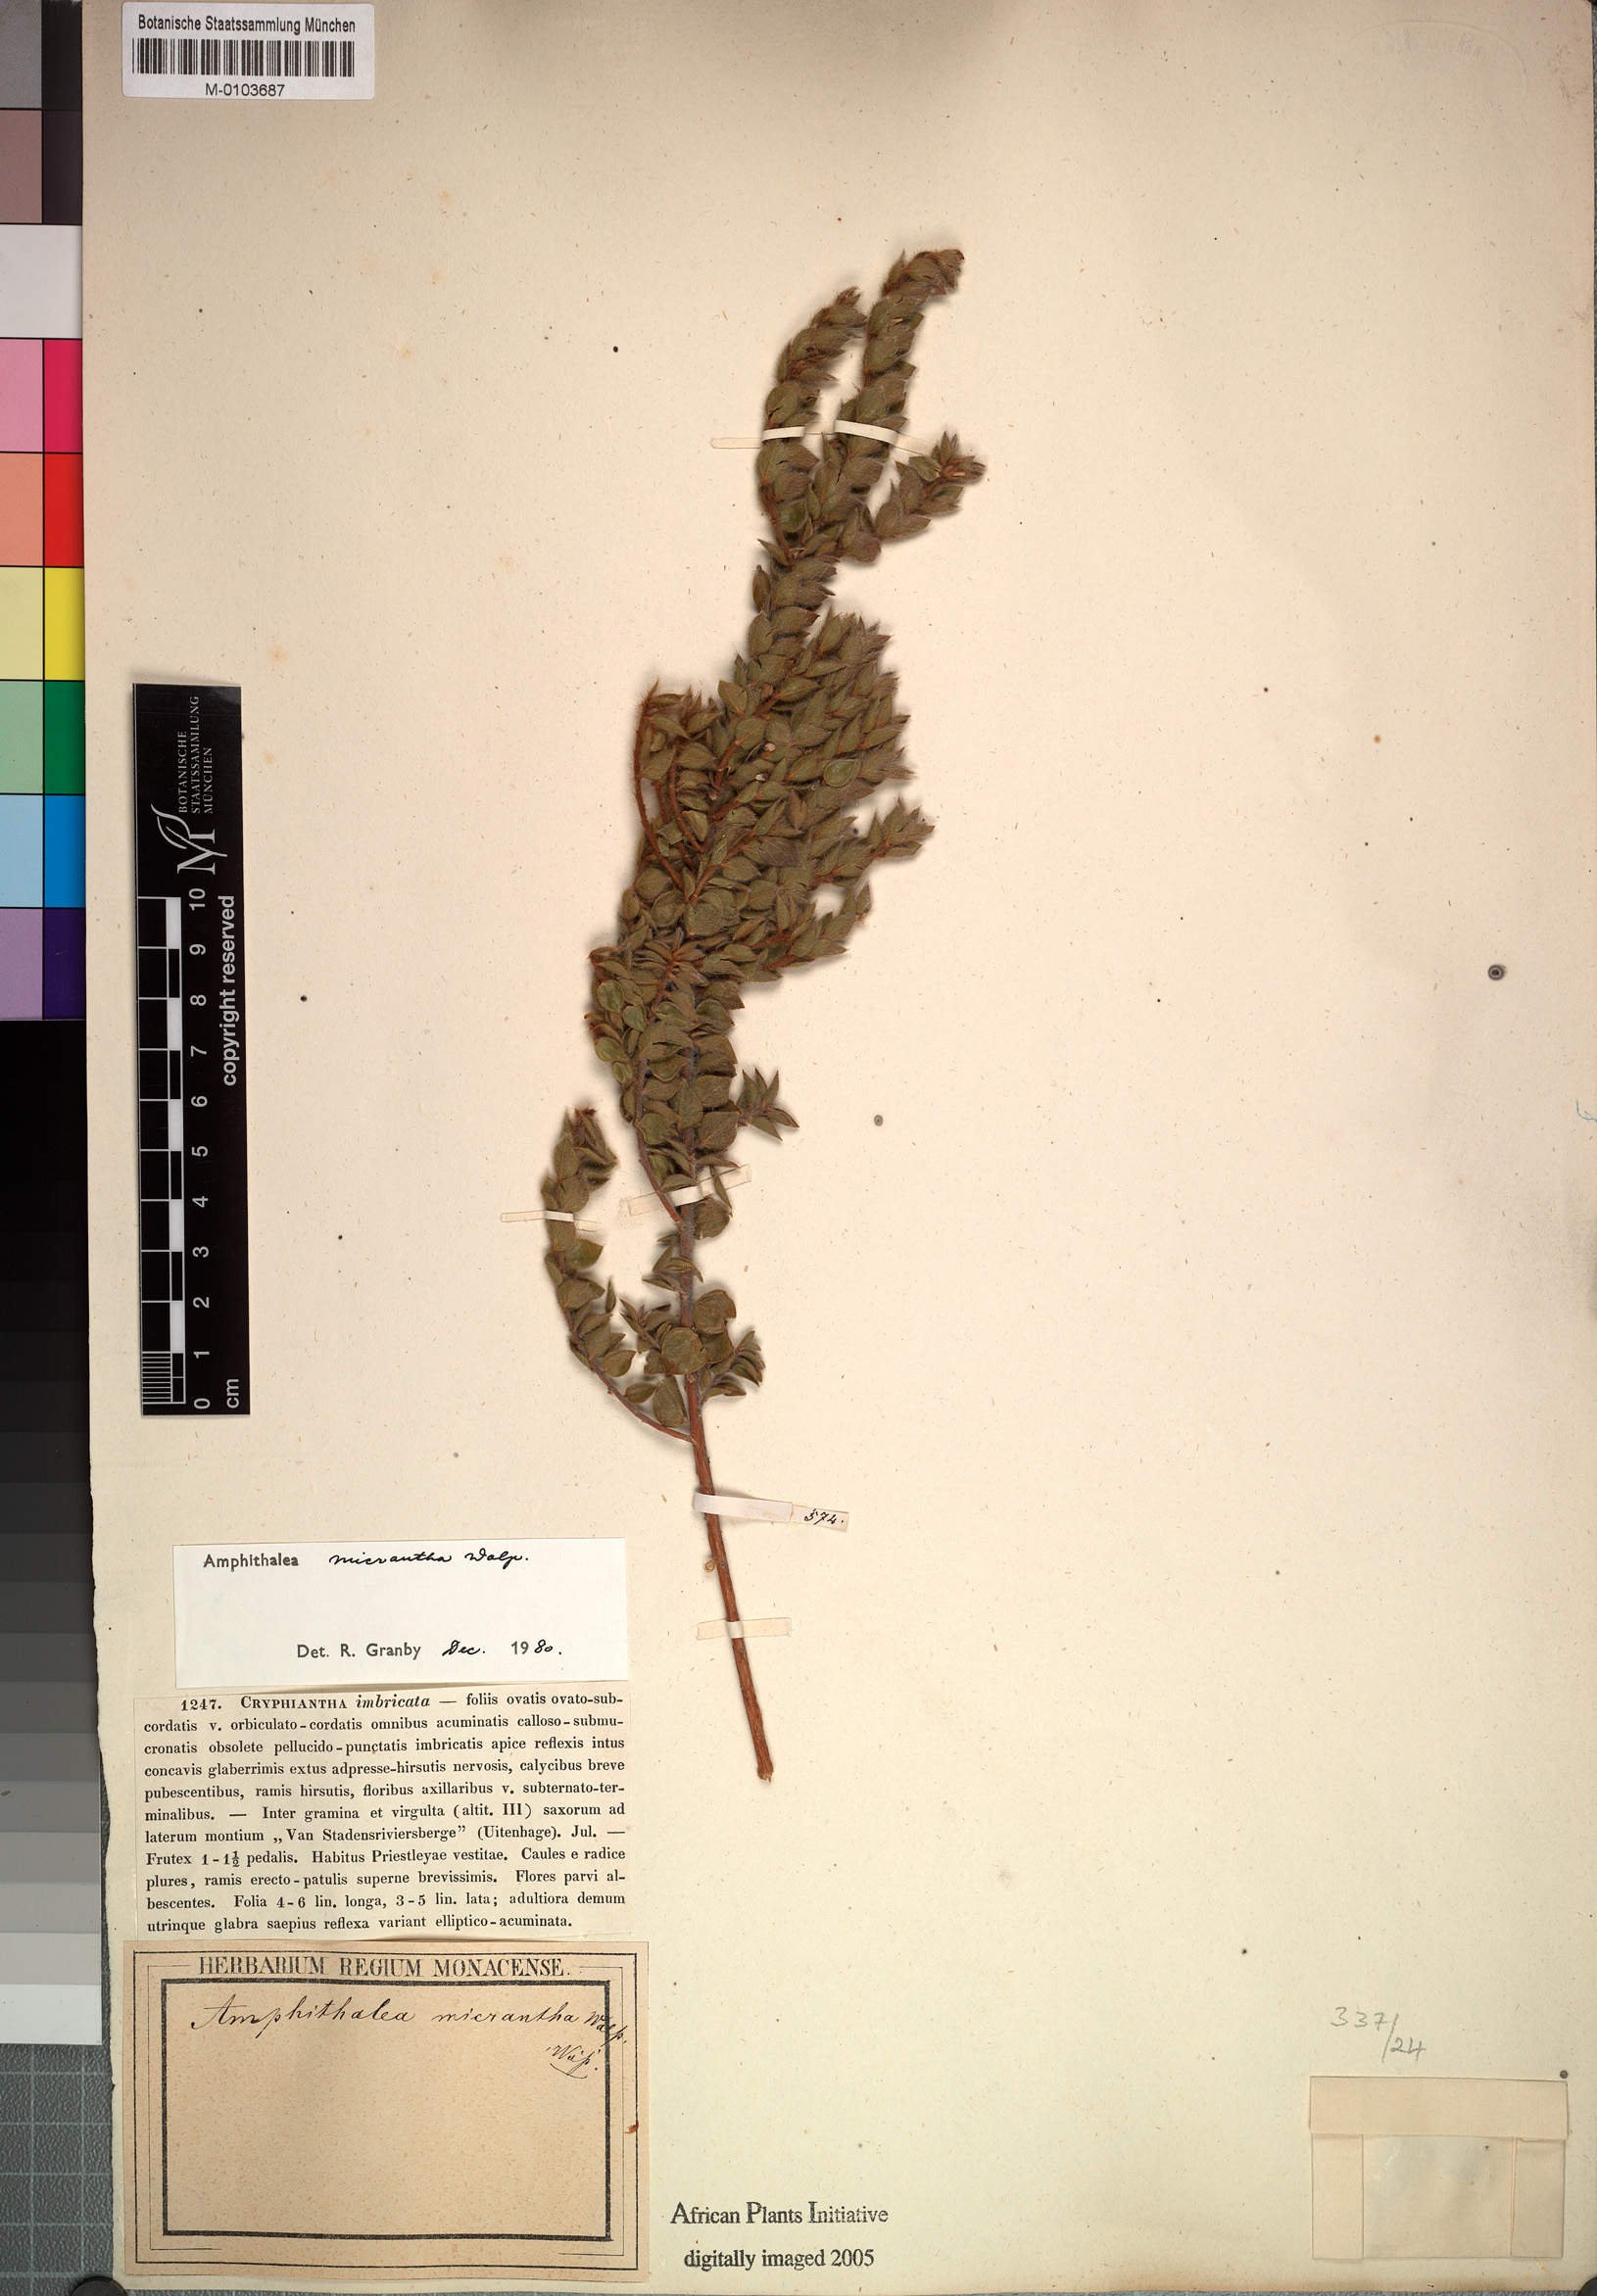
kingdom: Plantae
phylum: Tracheophyta
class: Magnoliopsida
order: Fabales
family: Fabaceae
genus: Amphithalea
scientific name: Amphithalea micrantha
